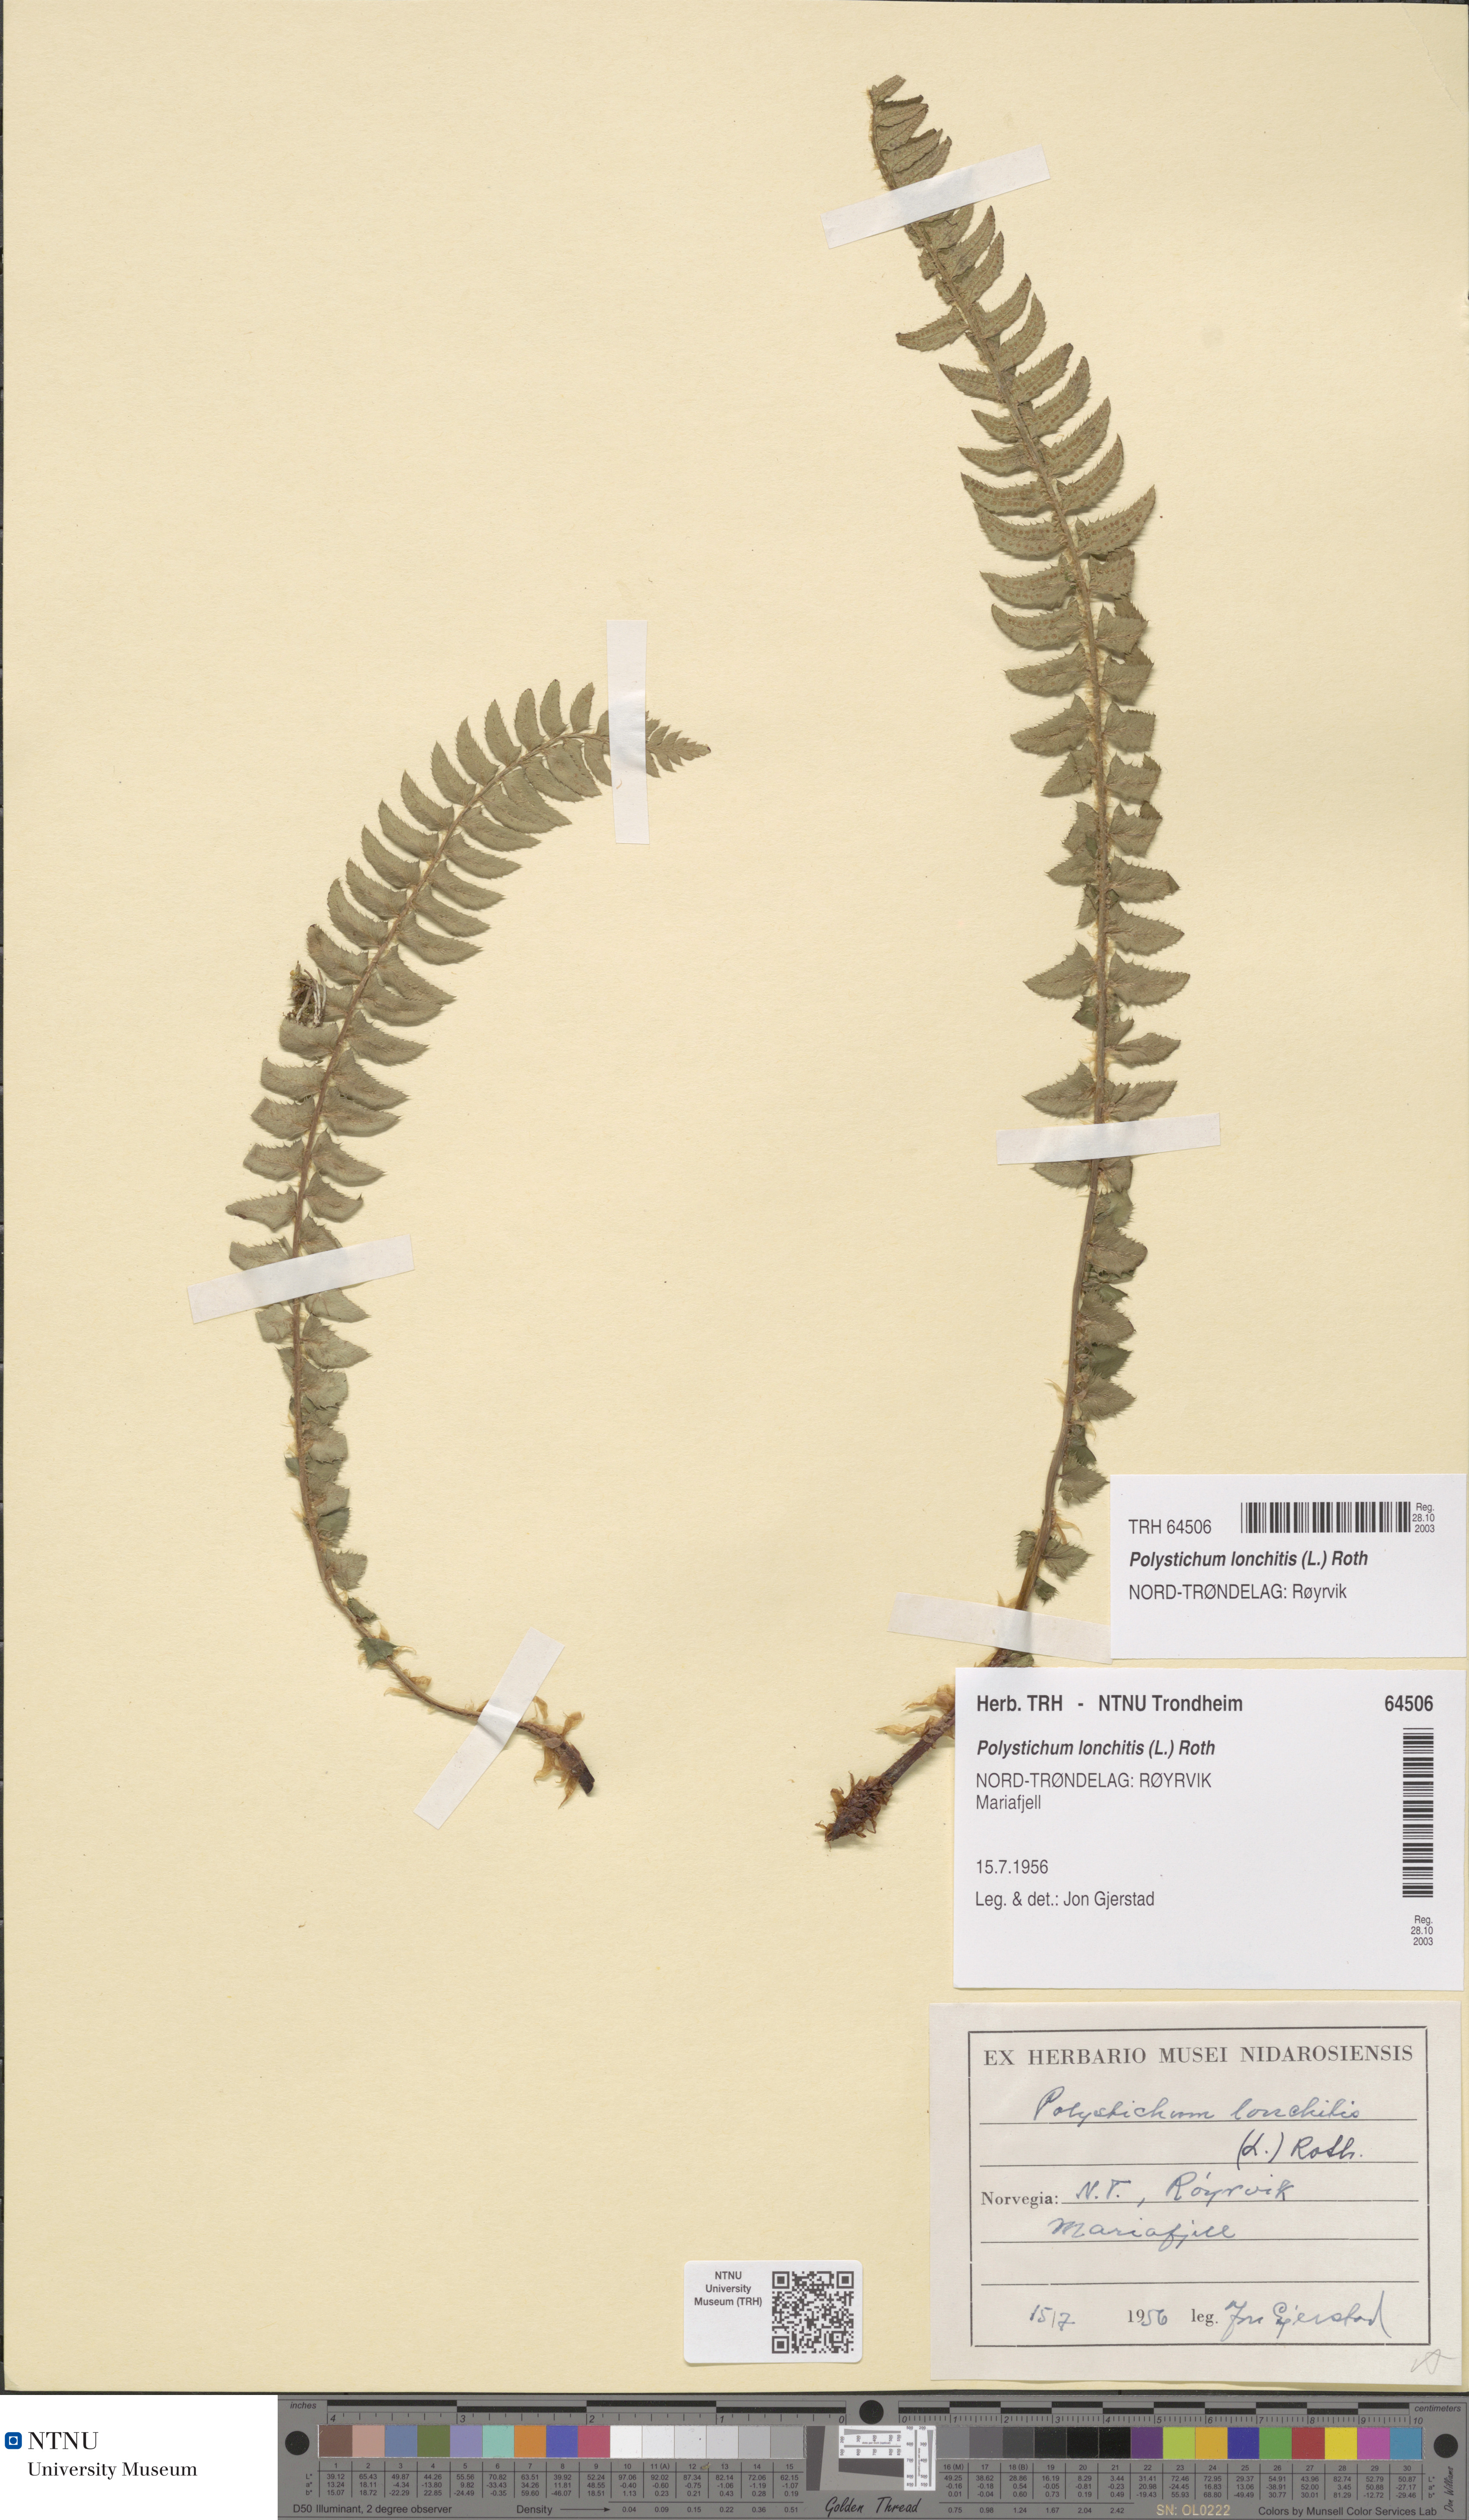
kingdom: Plantae
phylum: Tracheophyta
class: Polypodiopsida
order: Polypodiales
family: Dryopteridaceae
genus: Polystichum
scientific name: Polystichum lonchitis
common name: Holly fern
